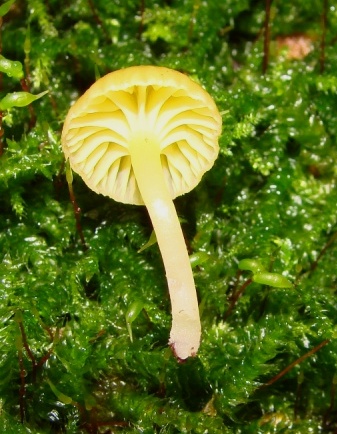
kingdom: Fungi
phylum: Basidiomycota
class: Agaricomycetes
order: Agaricales
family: Hygrophoraceae
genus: Chrysomphalina
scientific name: Chrysomphalina grossula
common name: stød-gyldenblad
